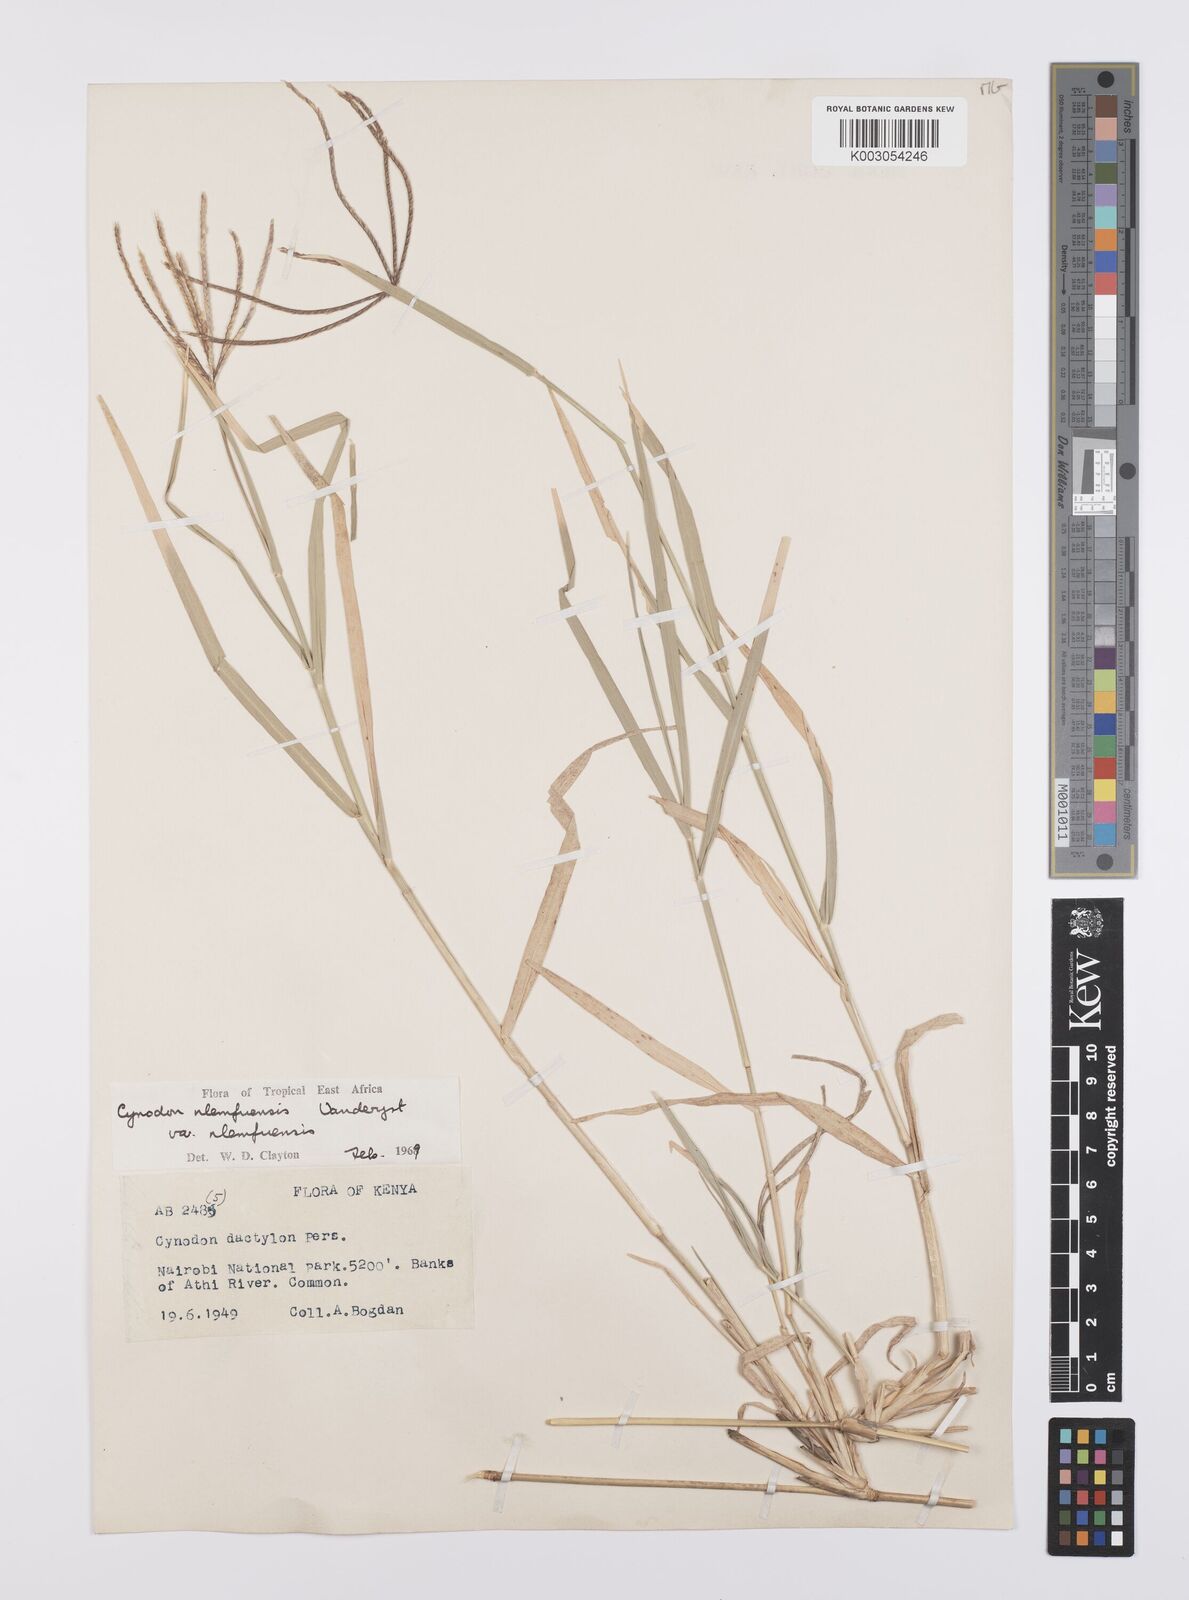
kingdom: Plantae
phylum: Tracheophyta
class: Liliopsida
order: Poales
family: Poaceae
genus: Cynodon
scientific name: Cynodon nlemfuensis
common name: African bermudagrass
